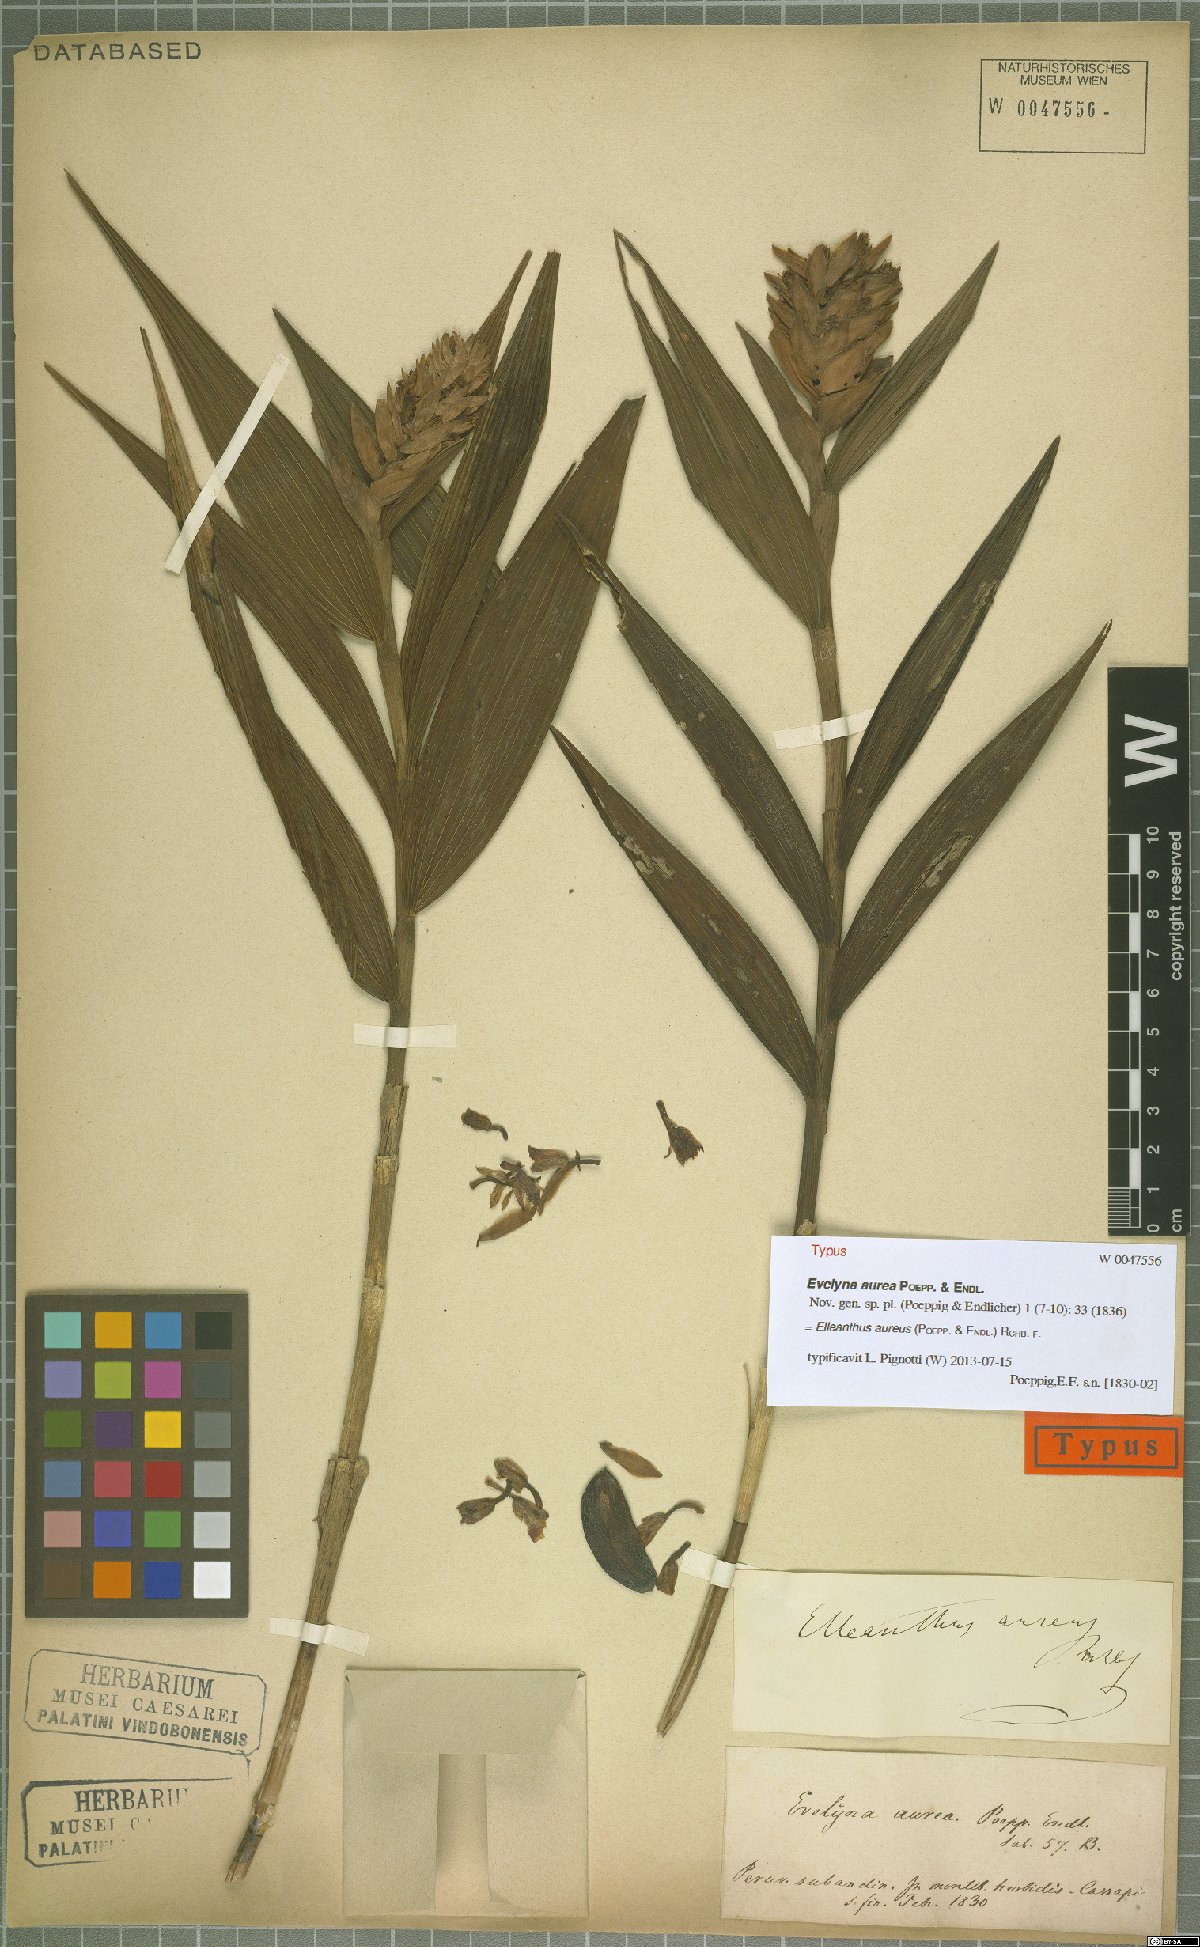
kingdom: Plantae
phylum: Tracheophyta
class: Liliopsida
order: Asparagales
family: Orchidaceae
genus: Elleanthus
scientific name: Elleanthus aureus
